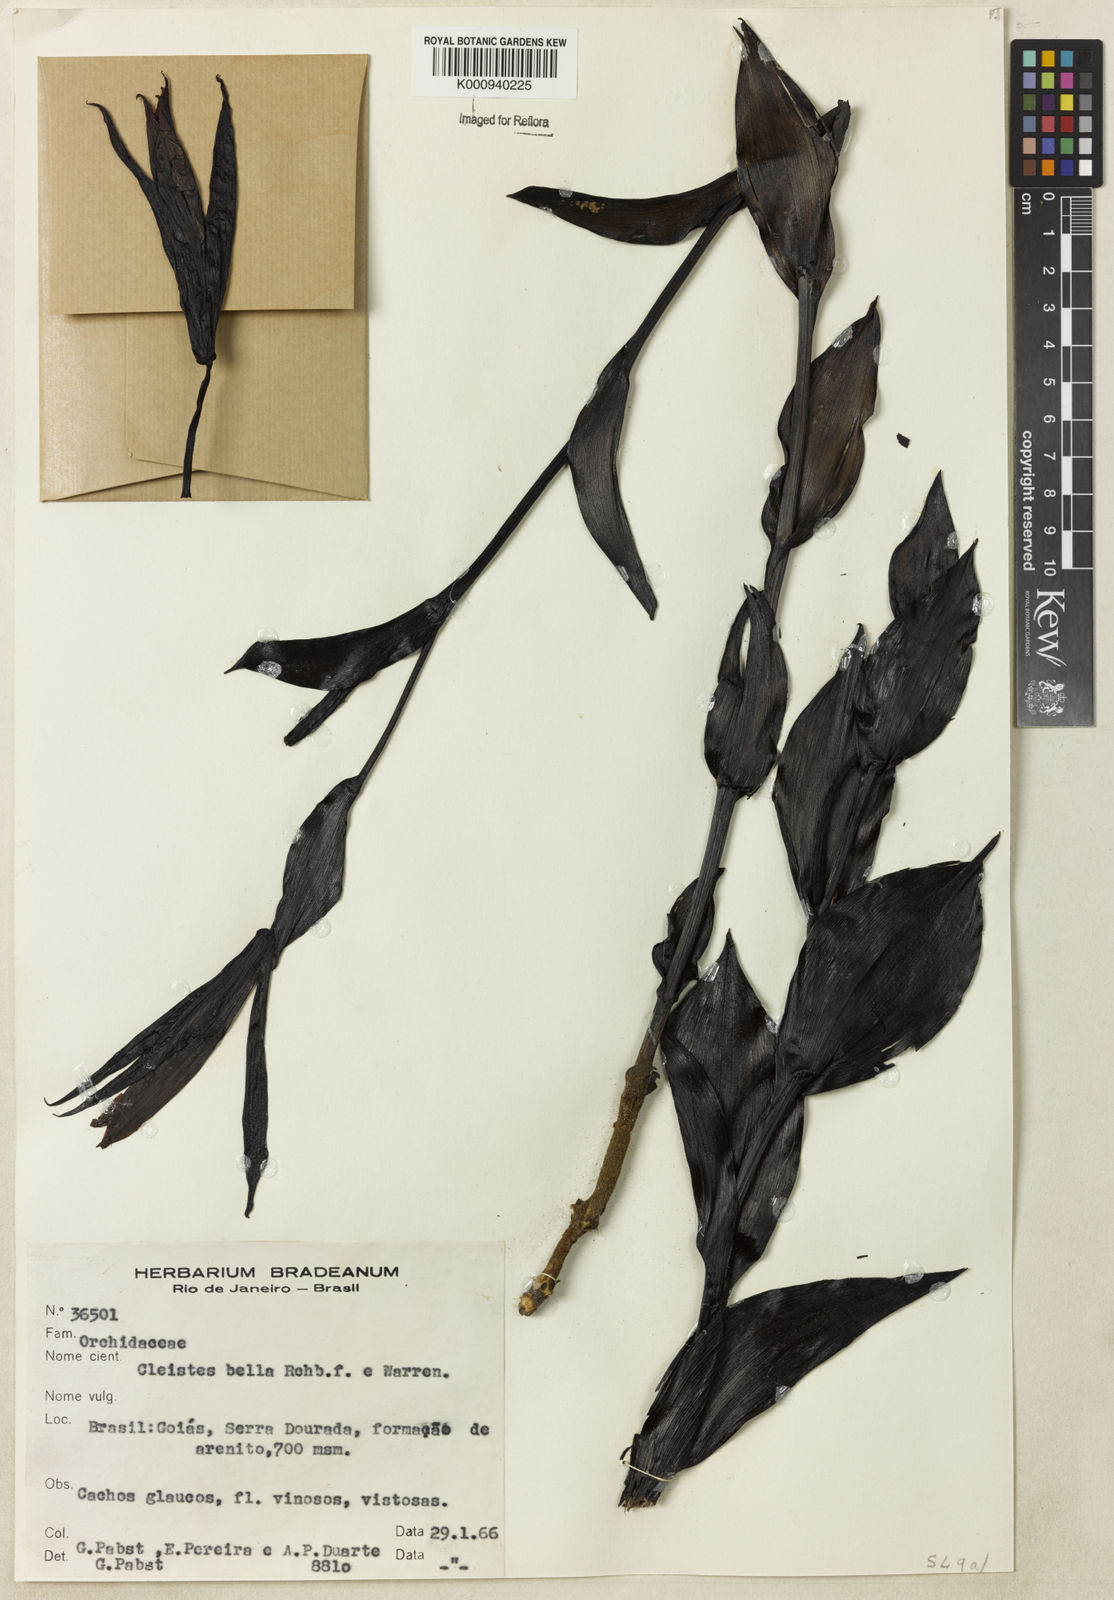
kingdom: Plantae
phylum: Tracheophyta
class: Liliopsida
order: Asparagales
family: Orchidaceae
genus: Cleistes
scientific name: Cleistes
